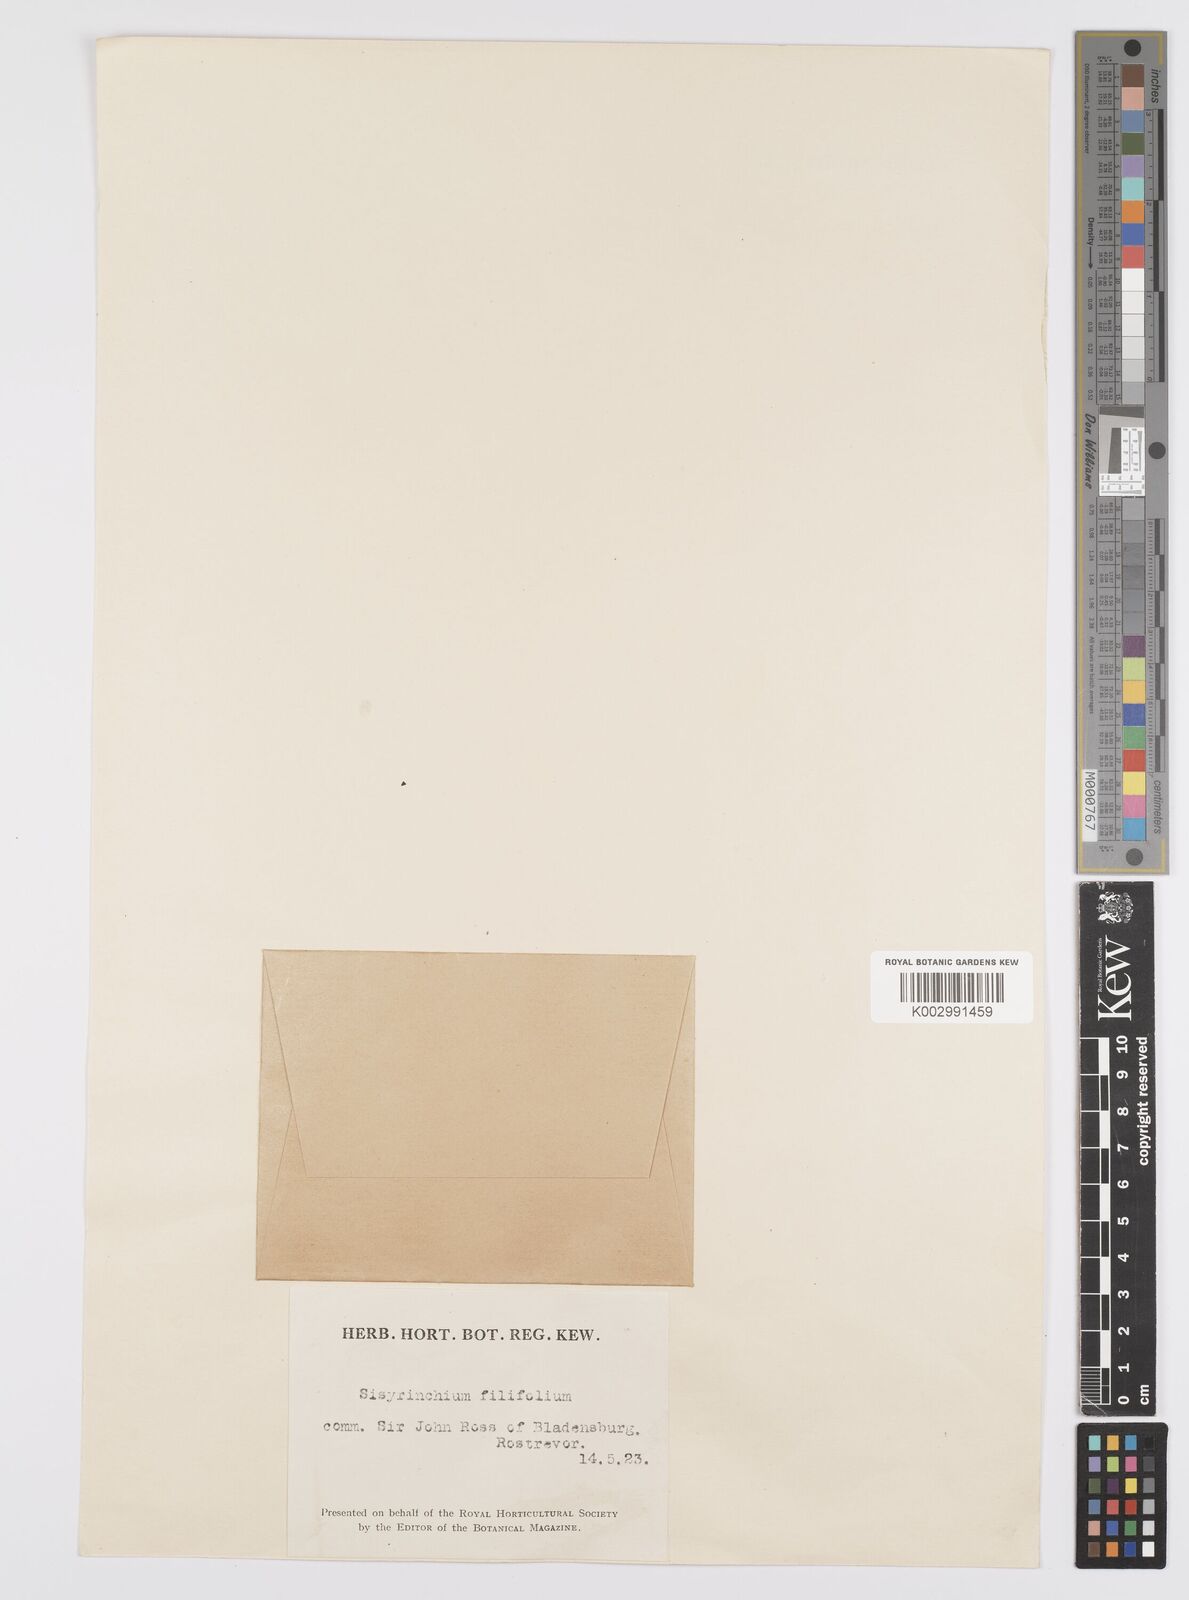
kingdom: Plantae
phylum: Tracheophyta
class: Liliopsida
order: Asparagales
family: Iridaceae
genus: Olsynium
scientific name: Olsynium filifolium
